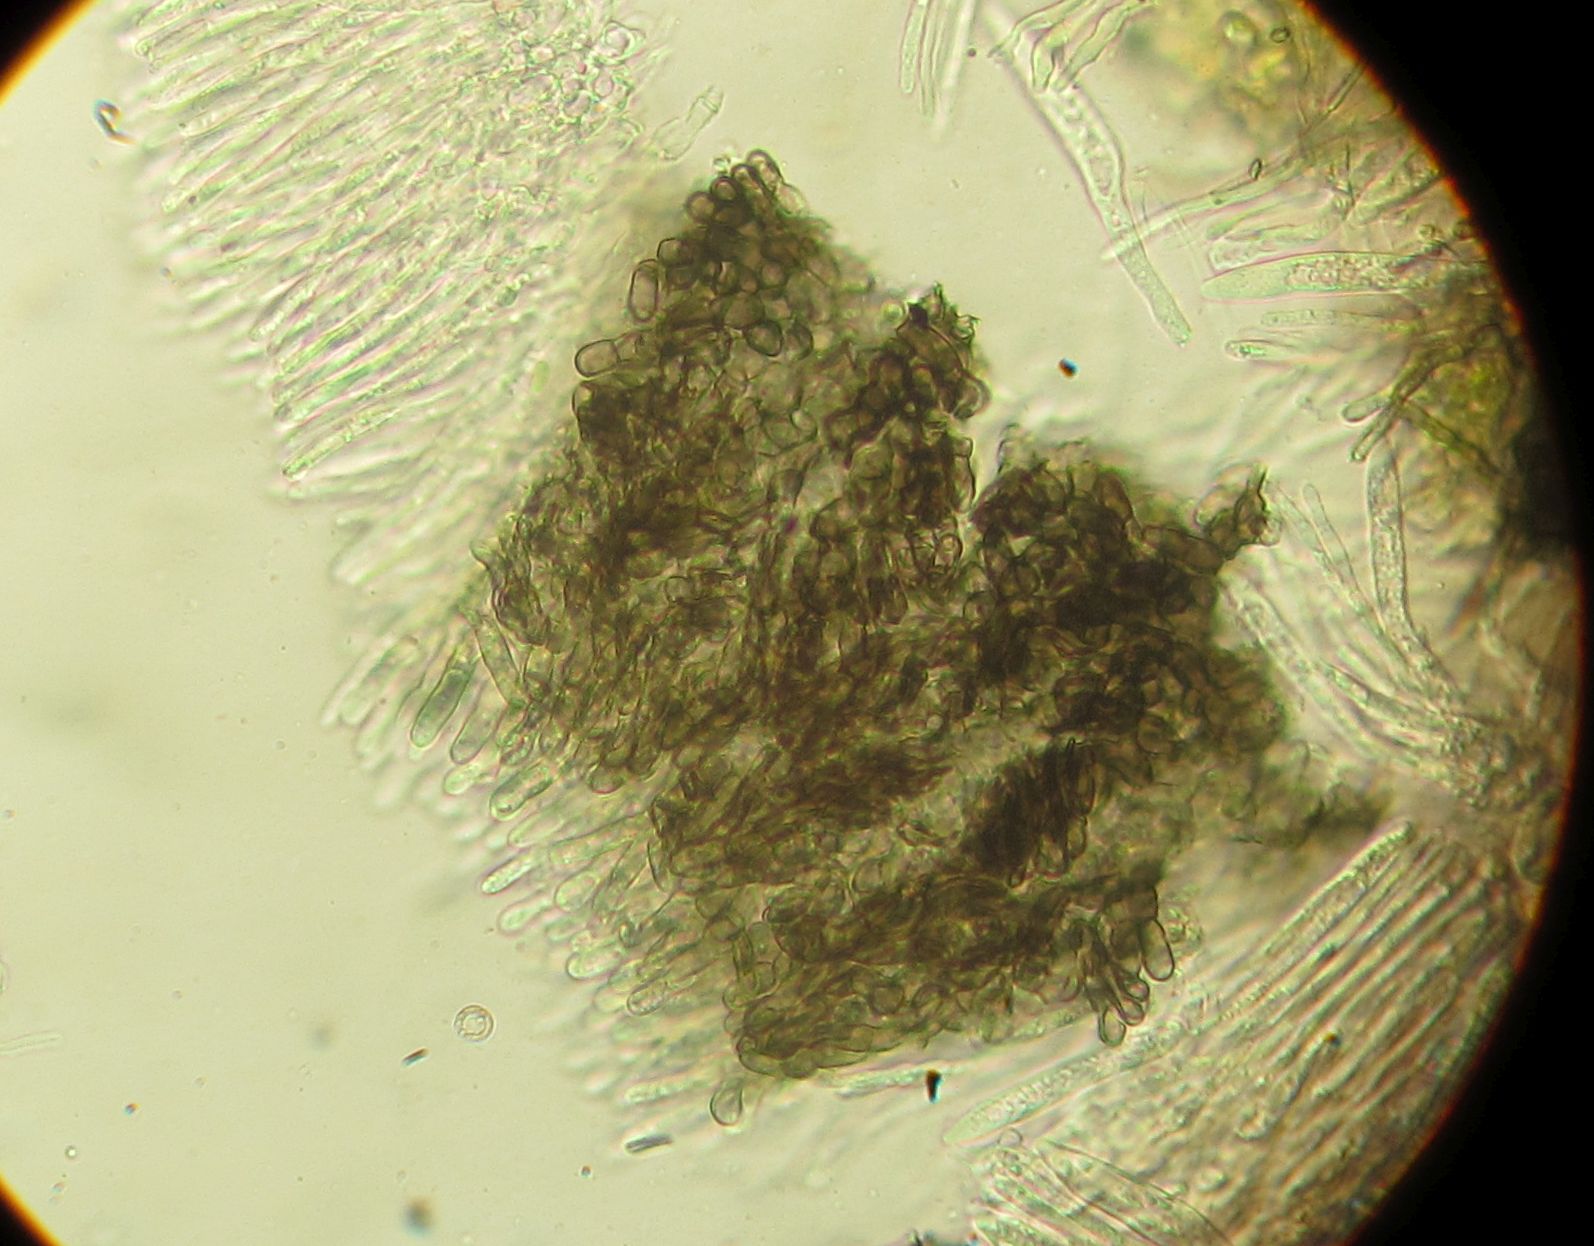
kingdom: Fungi
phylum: Ascomycota
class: Leotiomycetes
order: Helotiales
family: Ploettnerulaceae
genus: Pyrenopeziza
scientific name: Pyrenopeziza inornata
